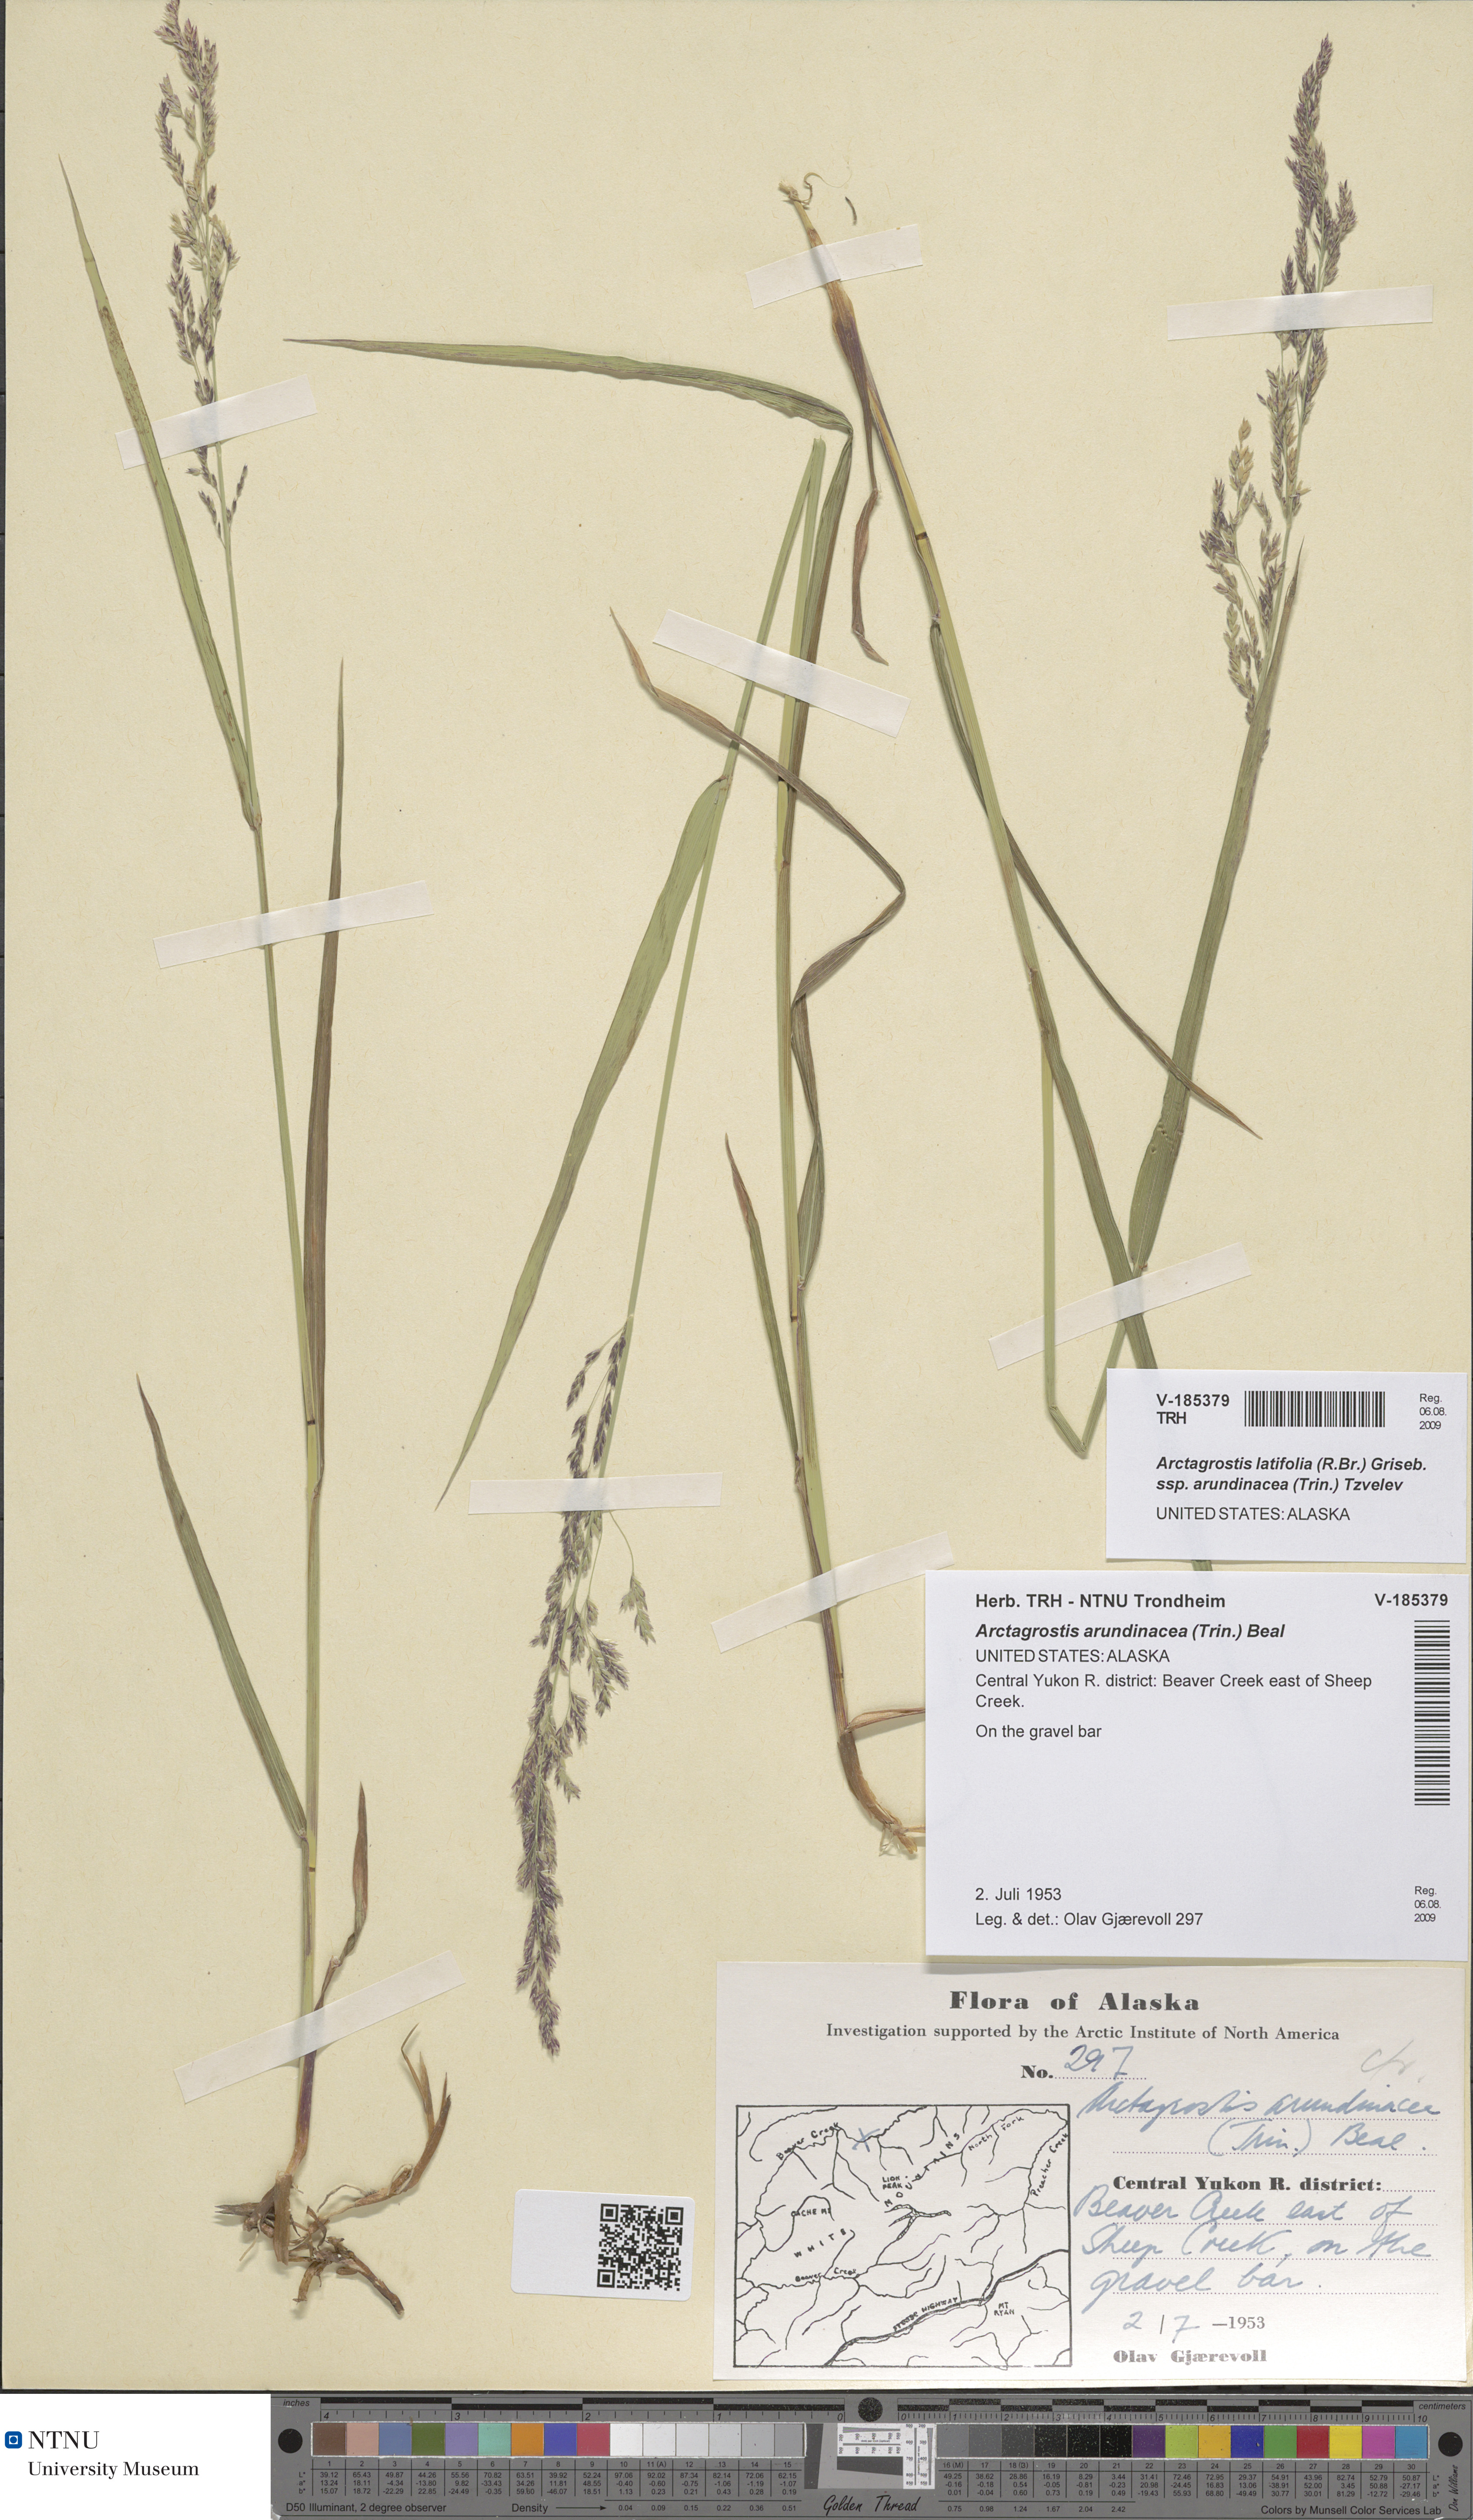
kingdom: Plantae
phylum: Tracheophyta
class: Liliopsida
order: Poales
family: Poaceae
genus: Arctagrostis
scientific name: Arctagrostis arundinacea
